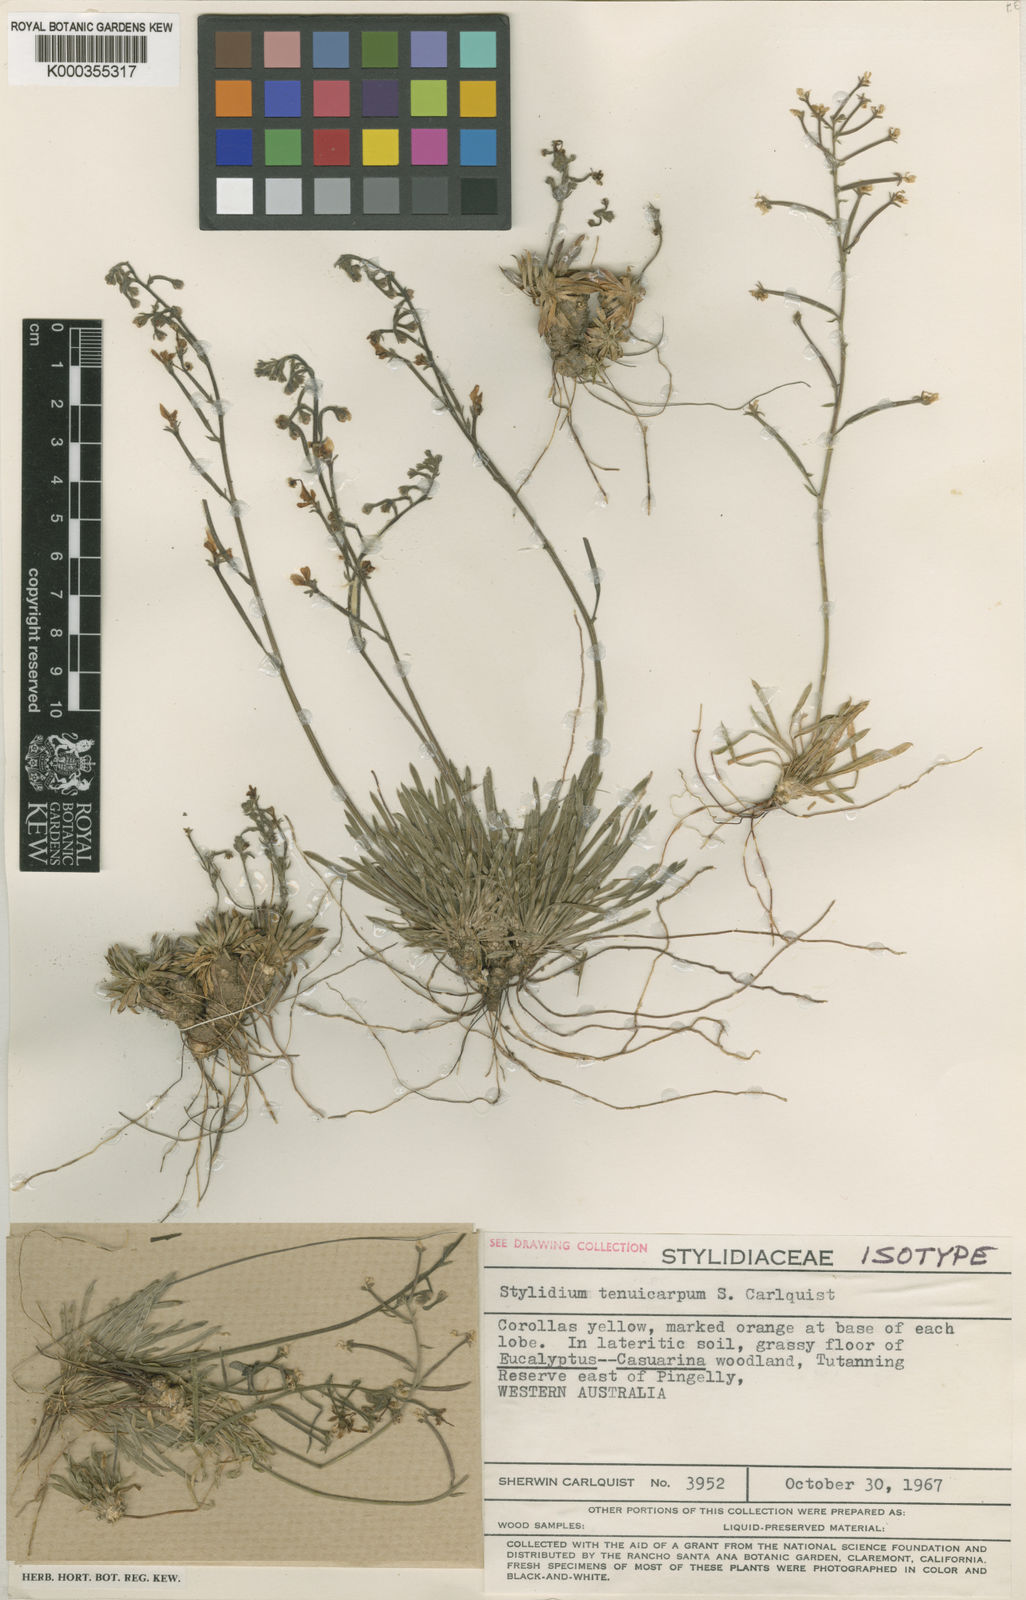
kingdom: Plantae
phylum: Tracheophyta
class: Magnoliopsida
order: Asterales
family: Stylidiaceae
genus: Stylidium
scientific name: Stylidium tenuicarpum
